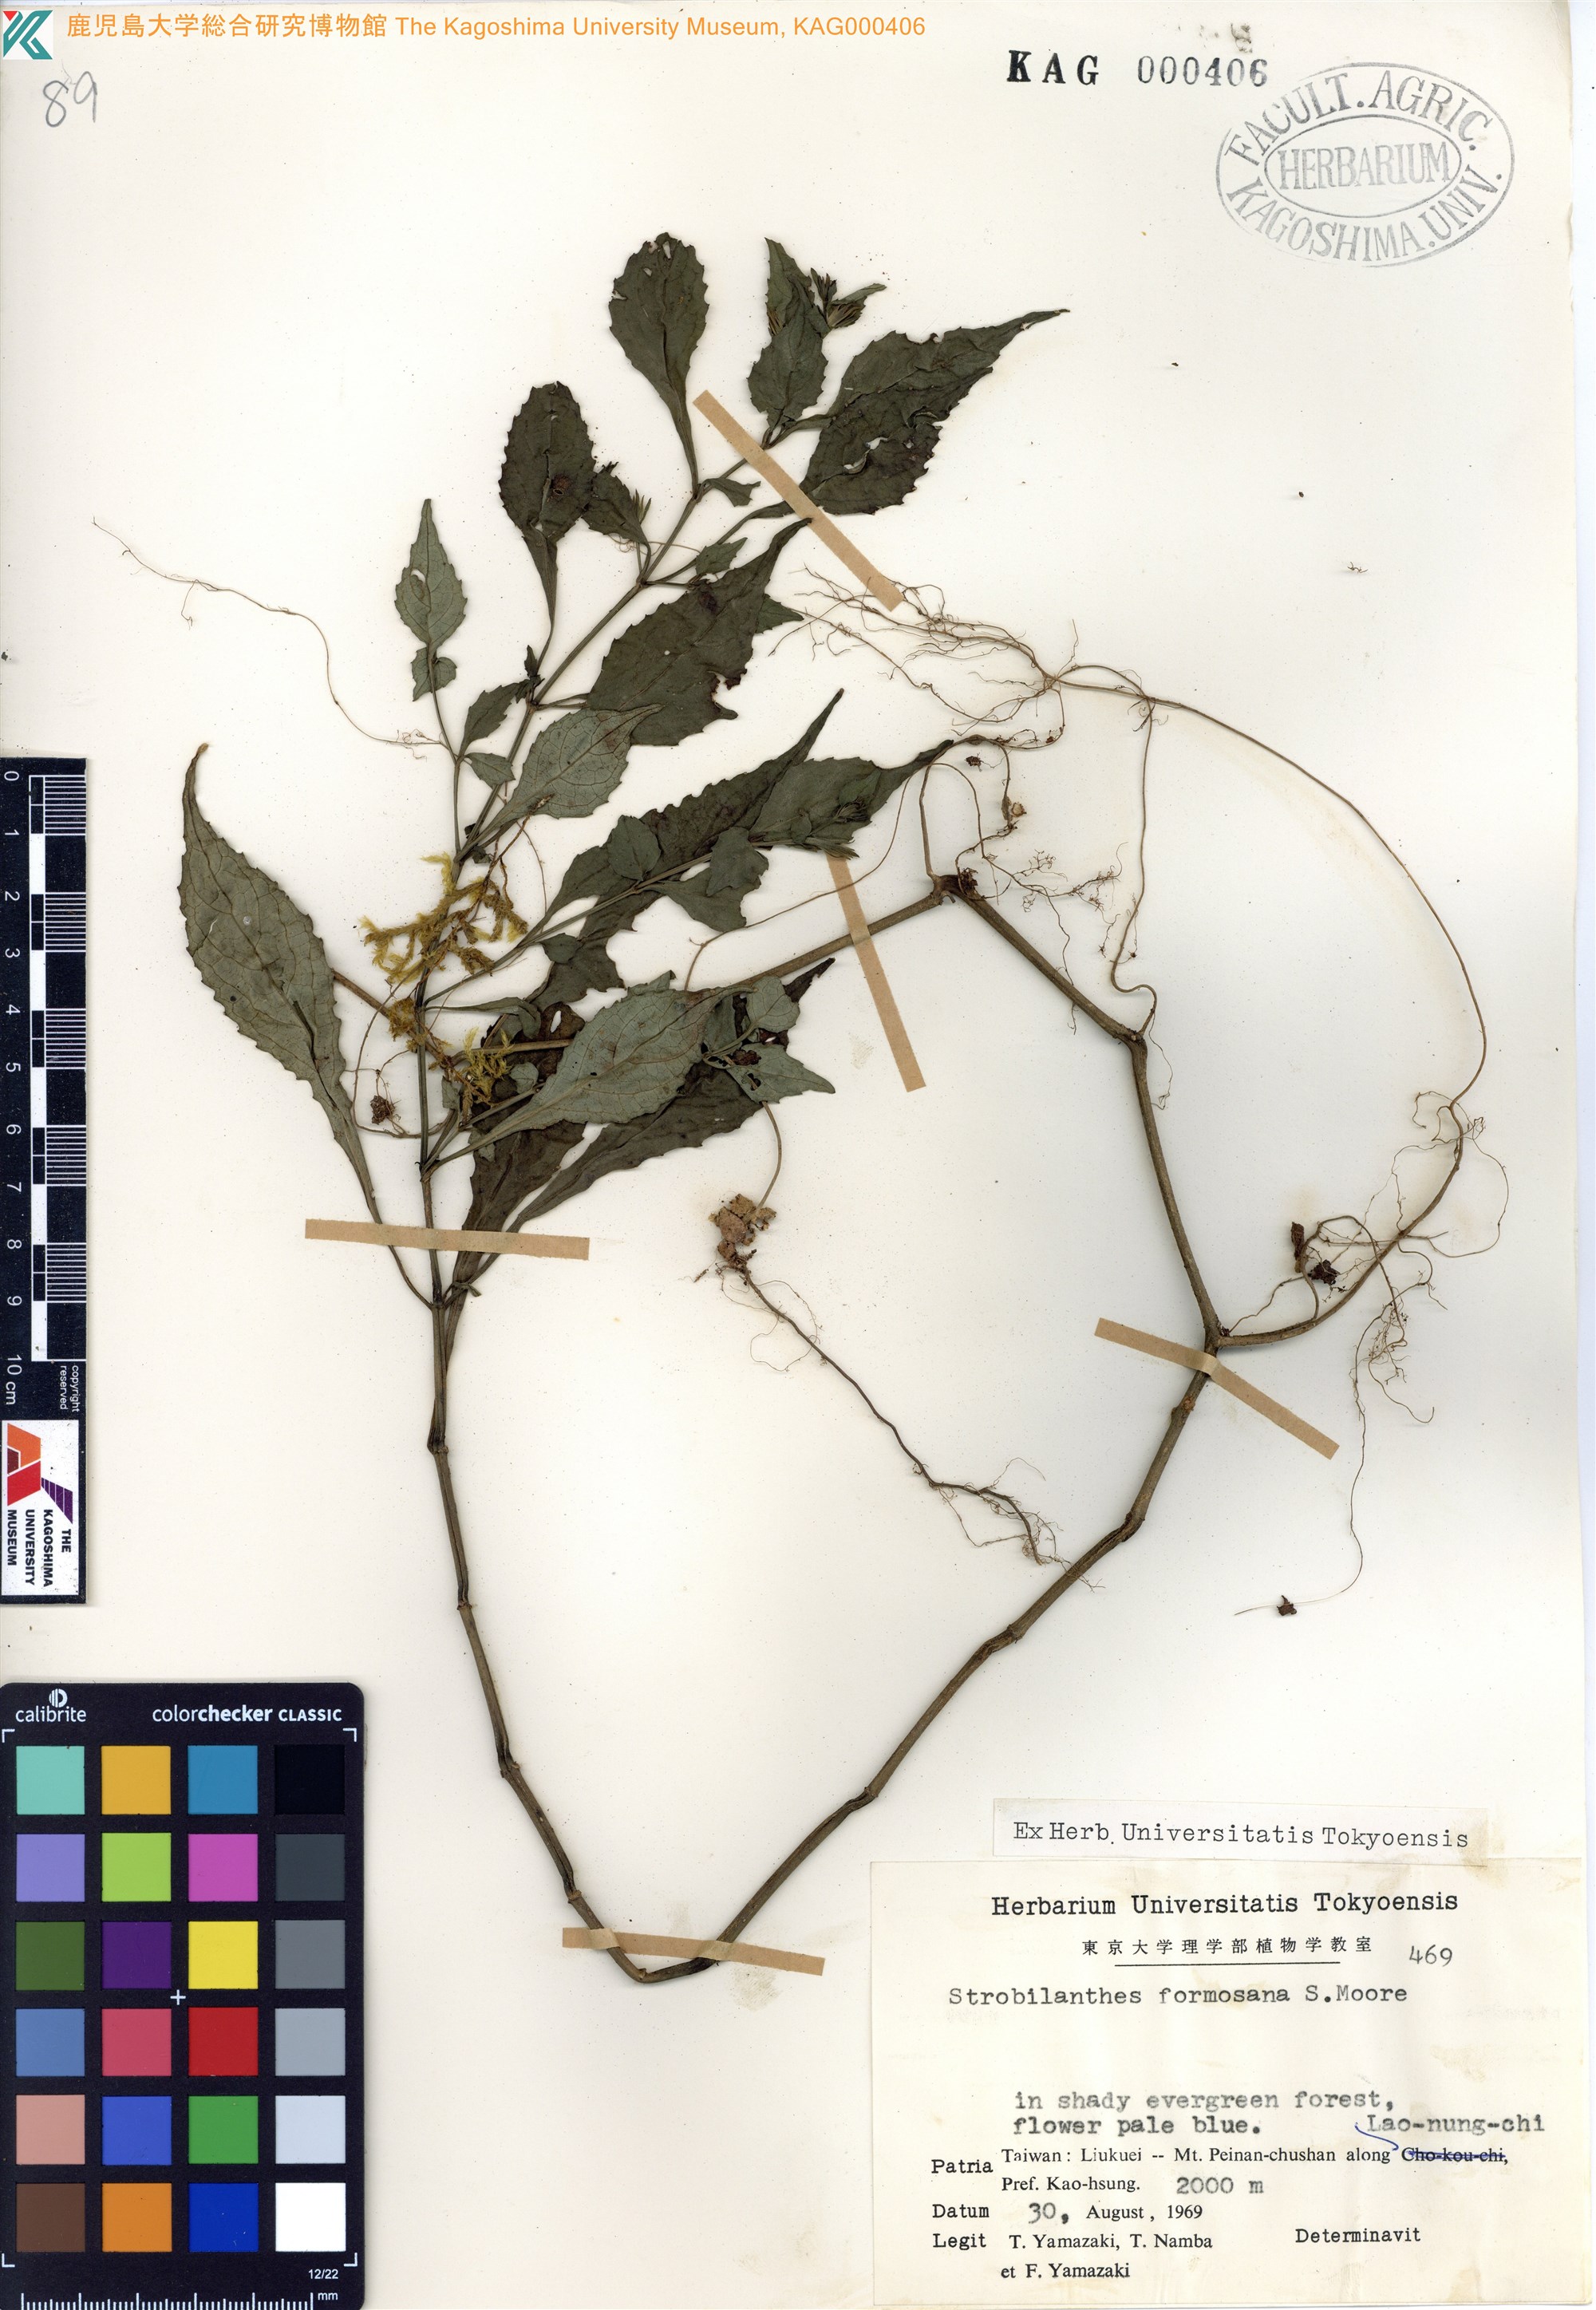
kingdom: Plantae
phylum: Tracheophyta
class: Magnoliopsida
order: Lamiales
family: Acanthaceae
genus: Strobilanthes
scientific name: Strobilanthes formosana
